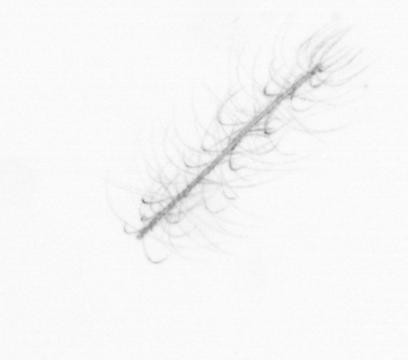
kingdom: Chromista
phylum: Ochrophyta
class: Bacillariophyceae
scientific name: Bacillariophyceae
